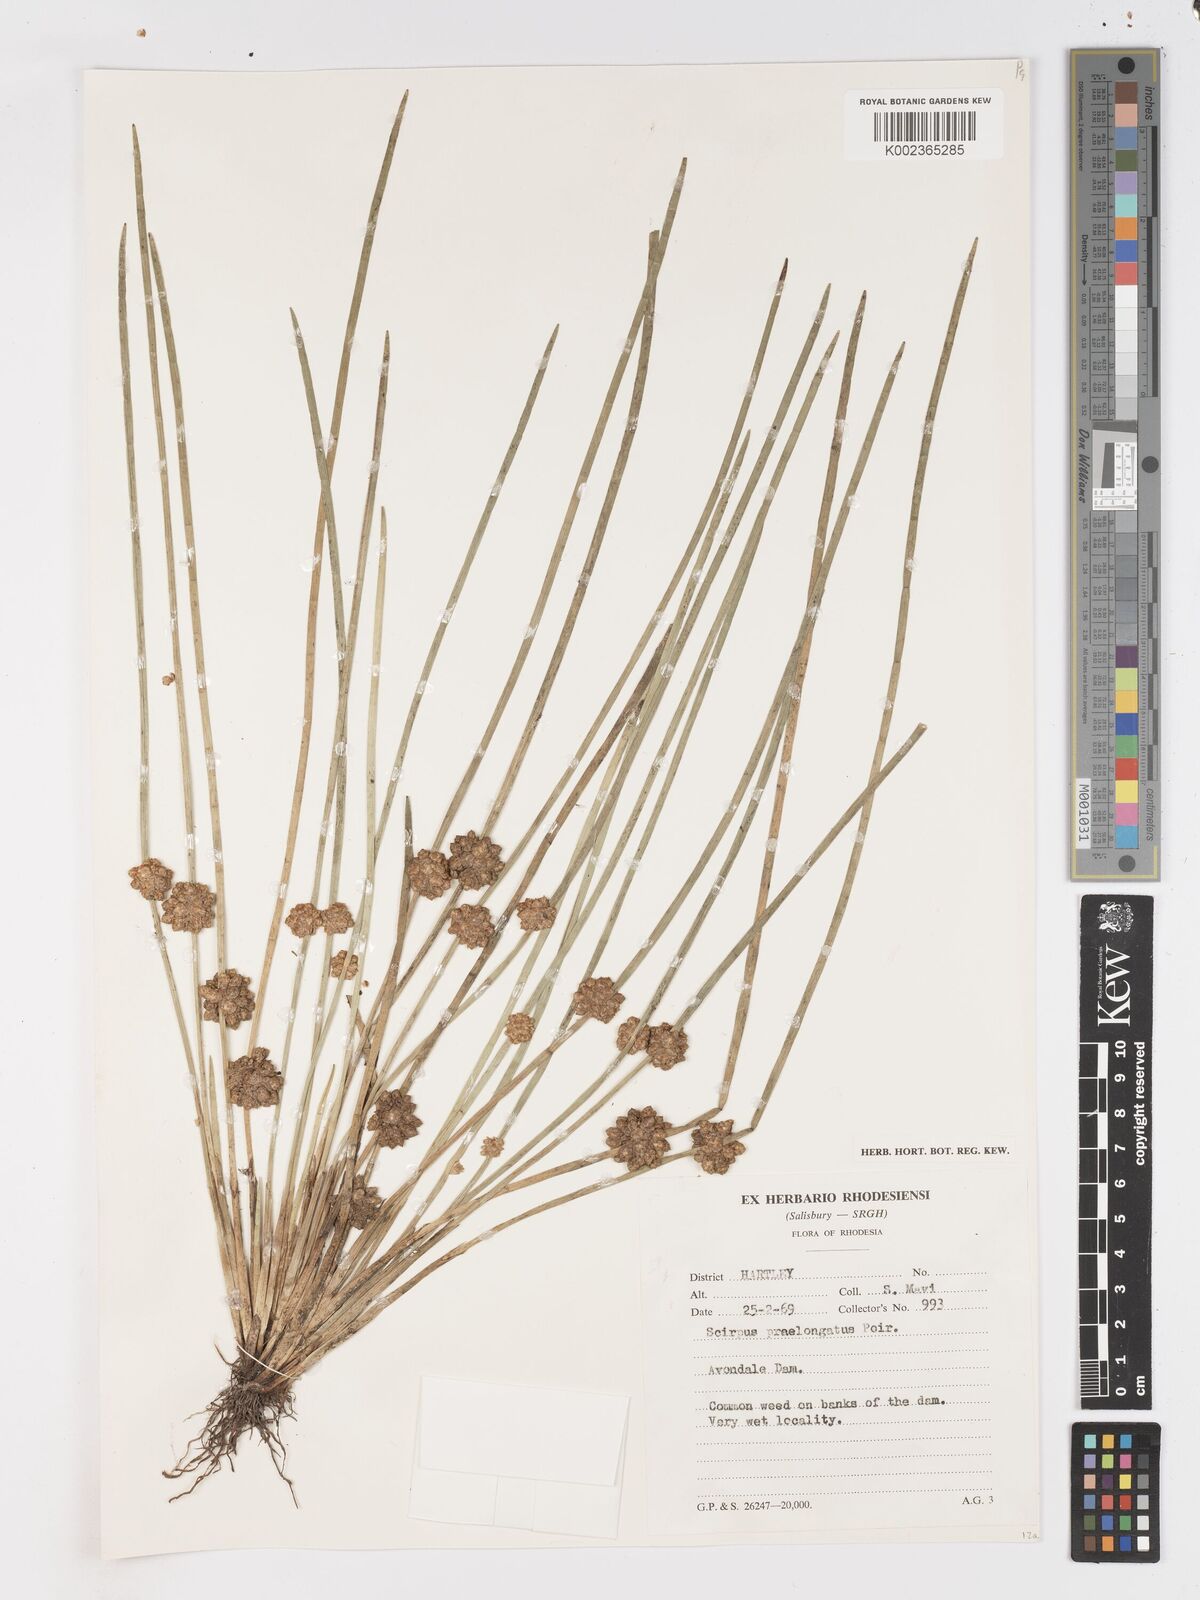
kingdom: Plantae
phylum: Tracheophyta
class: Liliopsida
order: Poales
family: Cyperaceae
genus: Schoenoplectiella
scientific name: Schoenoplectiella senegalensis
